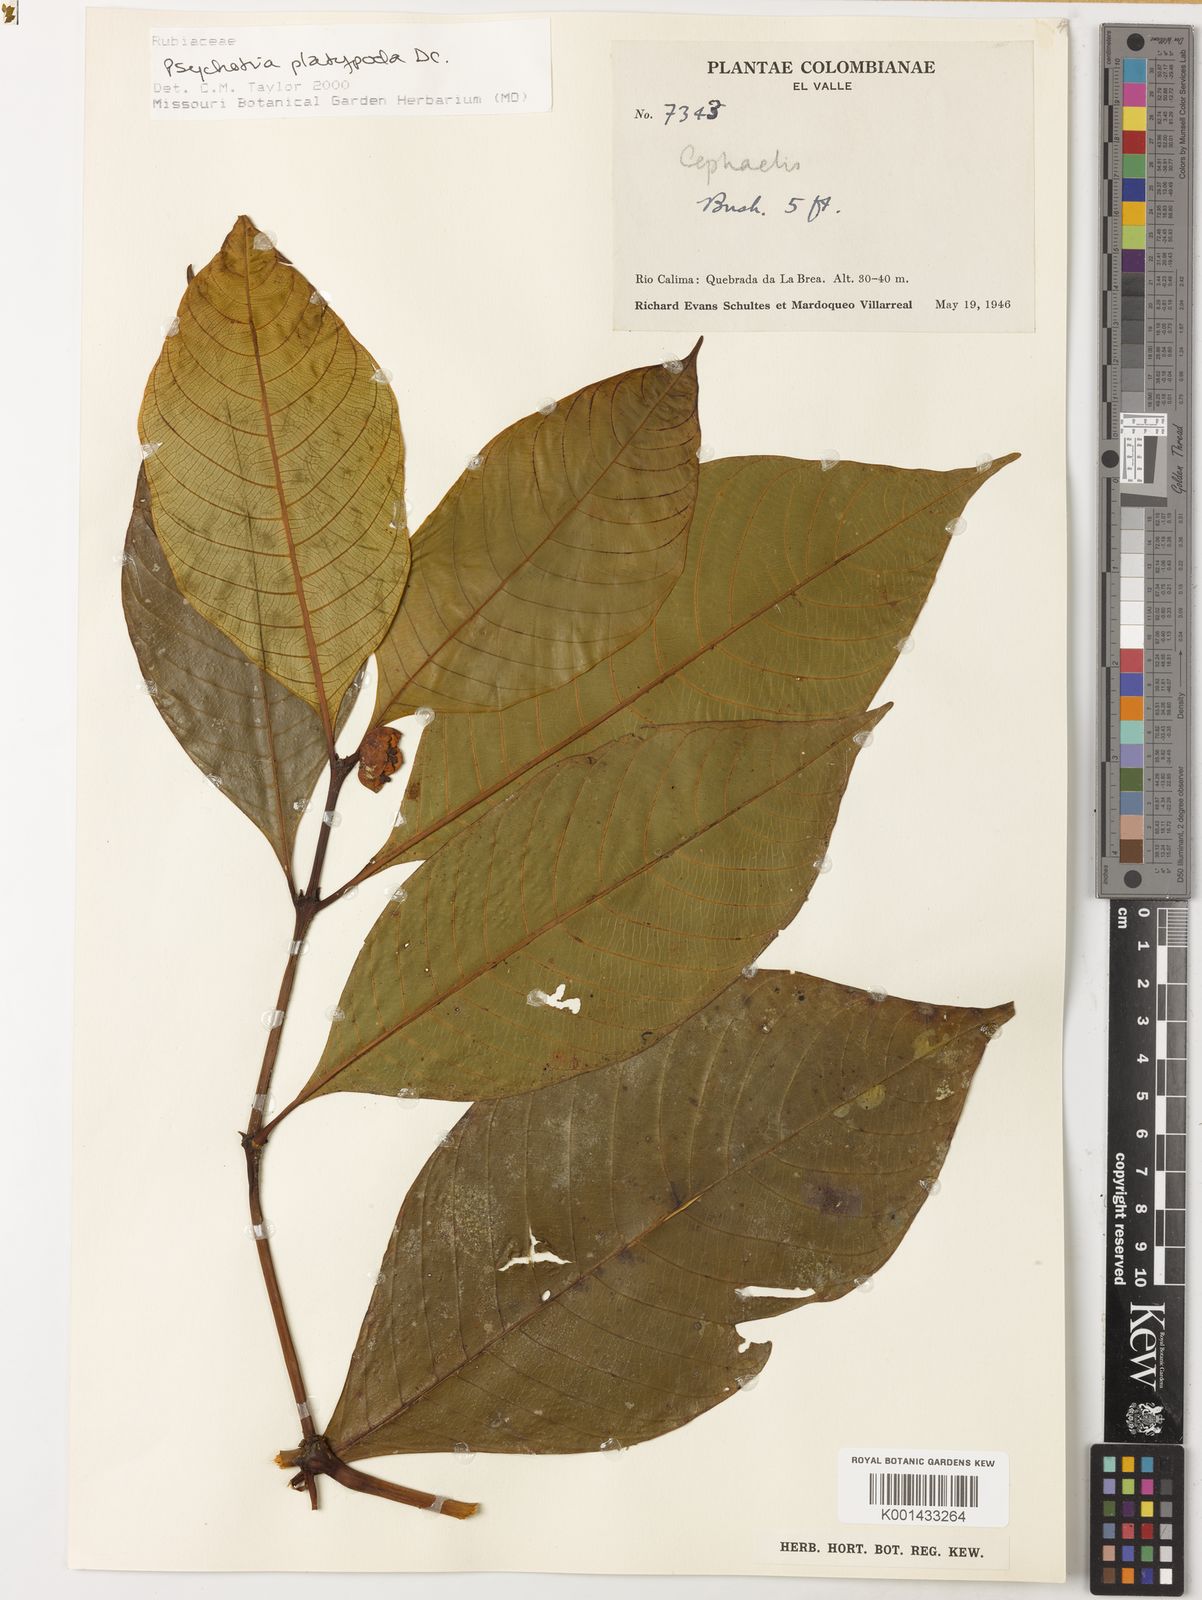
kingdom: Plantae
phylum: Tracheophyta
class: Magnoliopsida
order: Gentianales
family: Rubiaceae
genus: Palicourea
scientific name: Palicourea dichotoma
